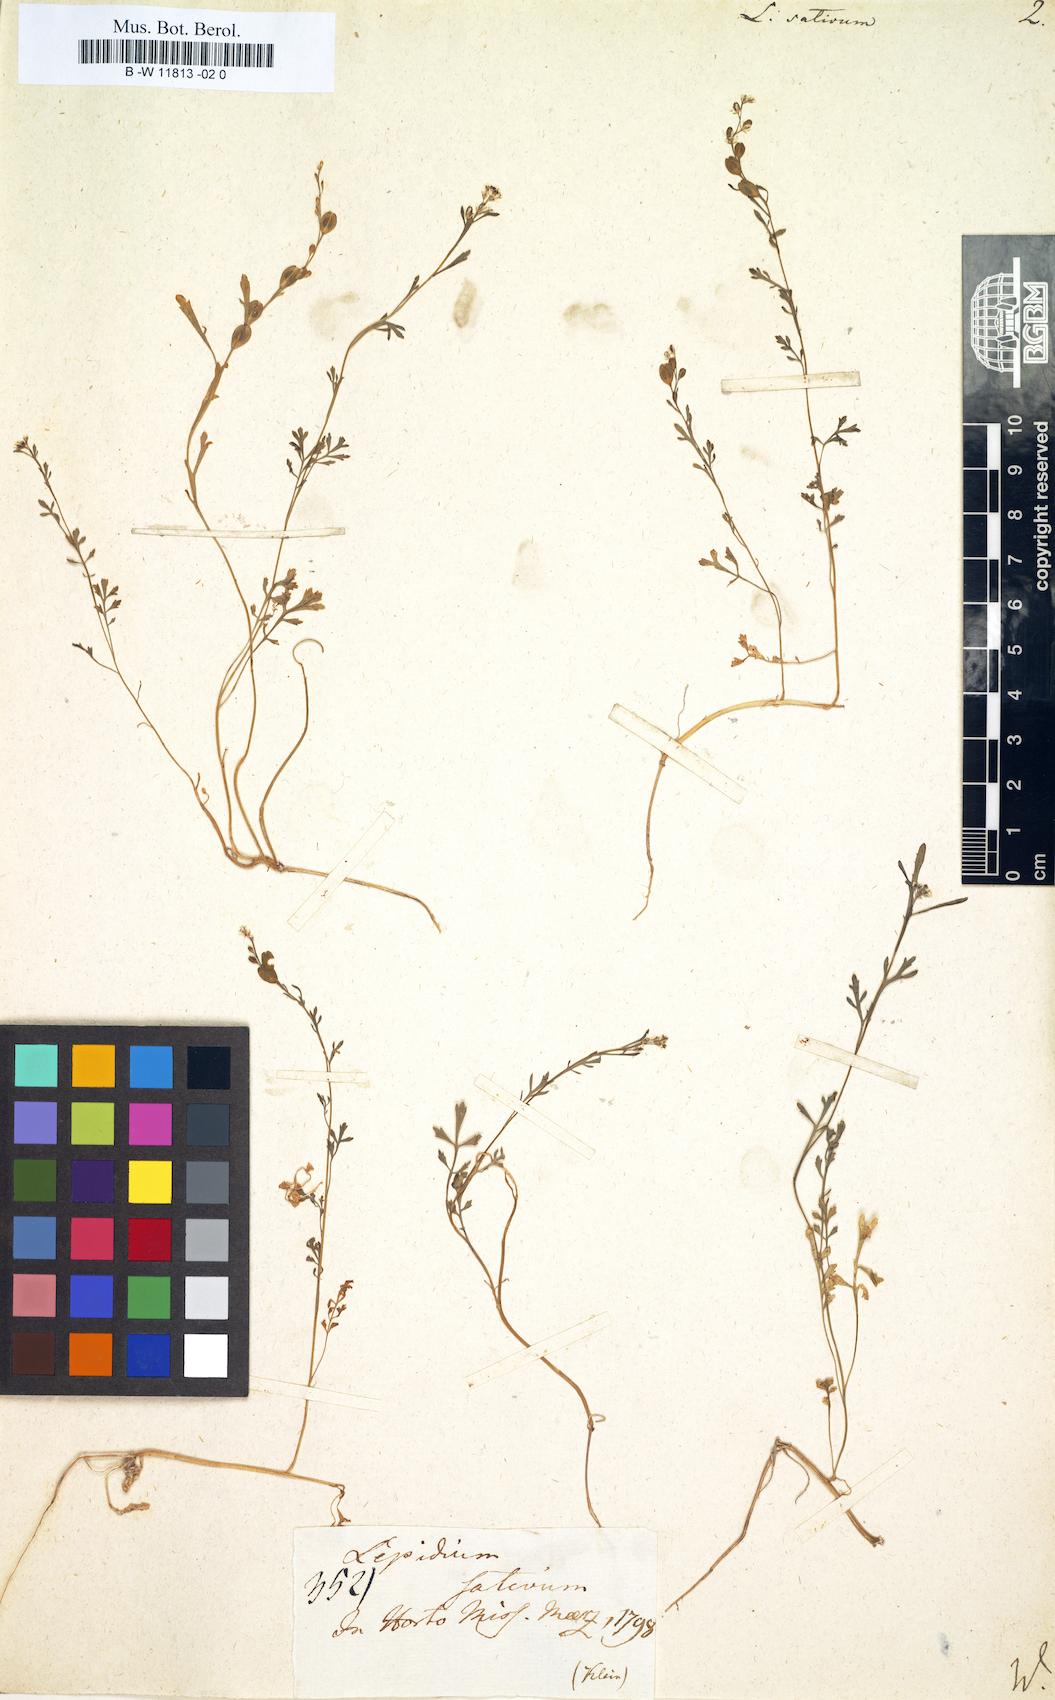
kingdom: Plantae
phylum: Tracheophyta
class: Magnoliopsida
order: Brassicales
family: Brassicaceae
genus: Lepidium
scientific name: Lepidium sativum
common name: Garden cress
